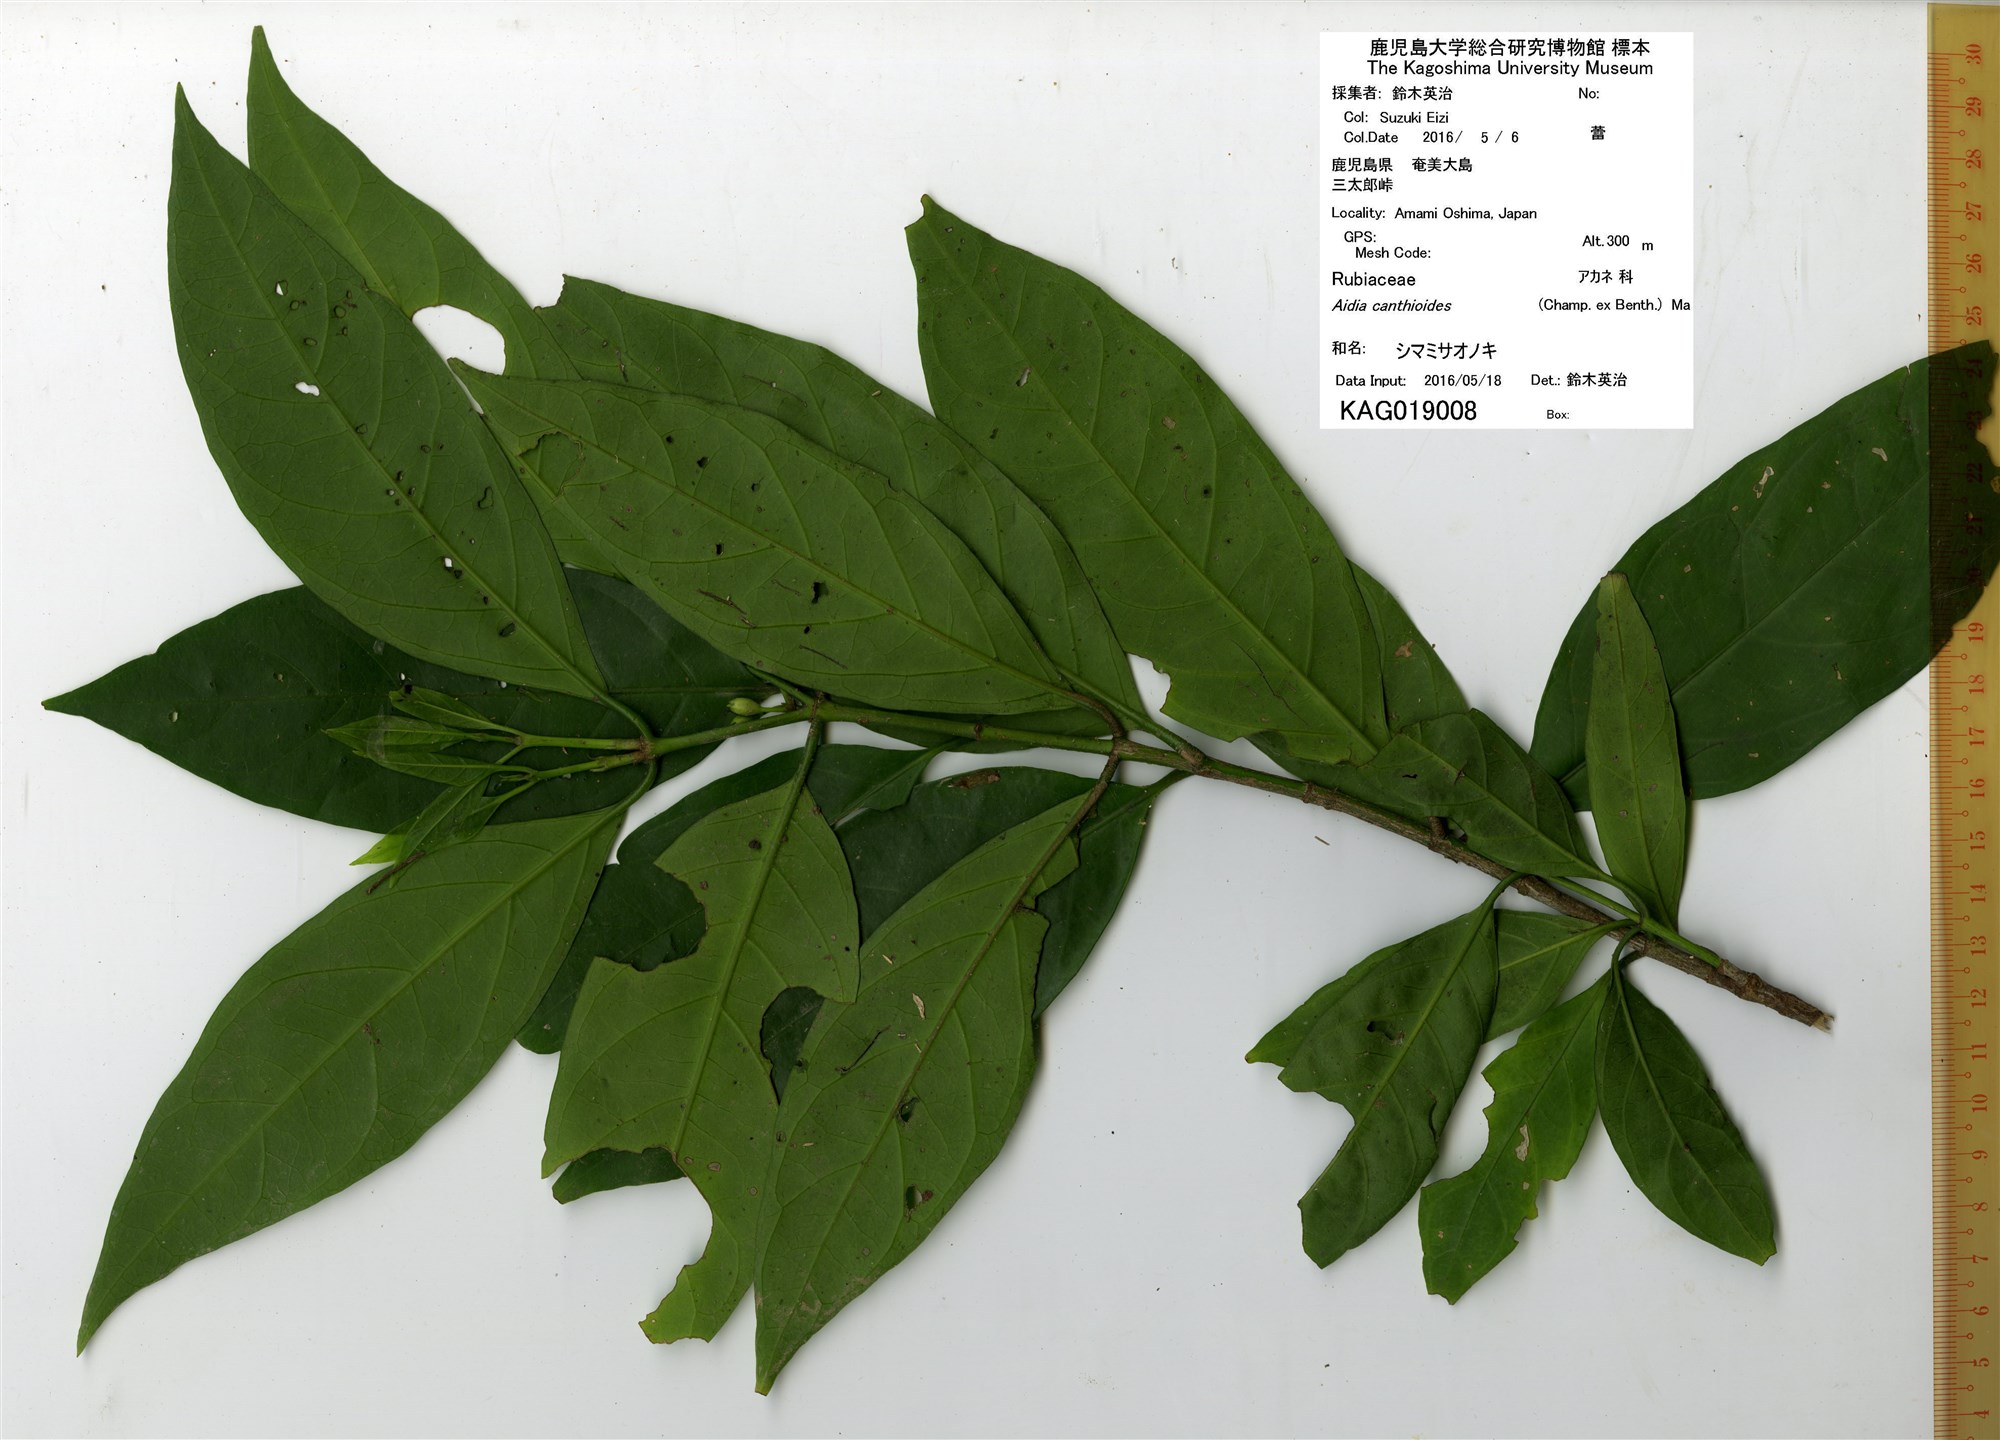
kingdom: Plantae
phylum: Tracheophyta
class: Magnoliopsida
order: Gentianales
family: Rubiaceae
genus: Aidia
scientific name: Aidia canthioides
